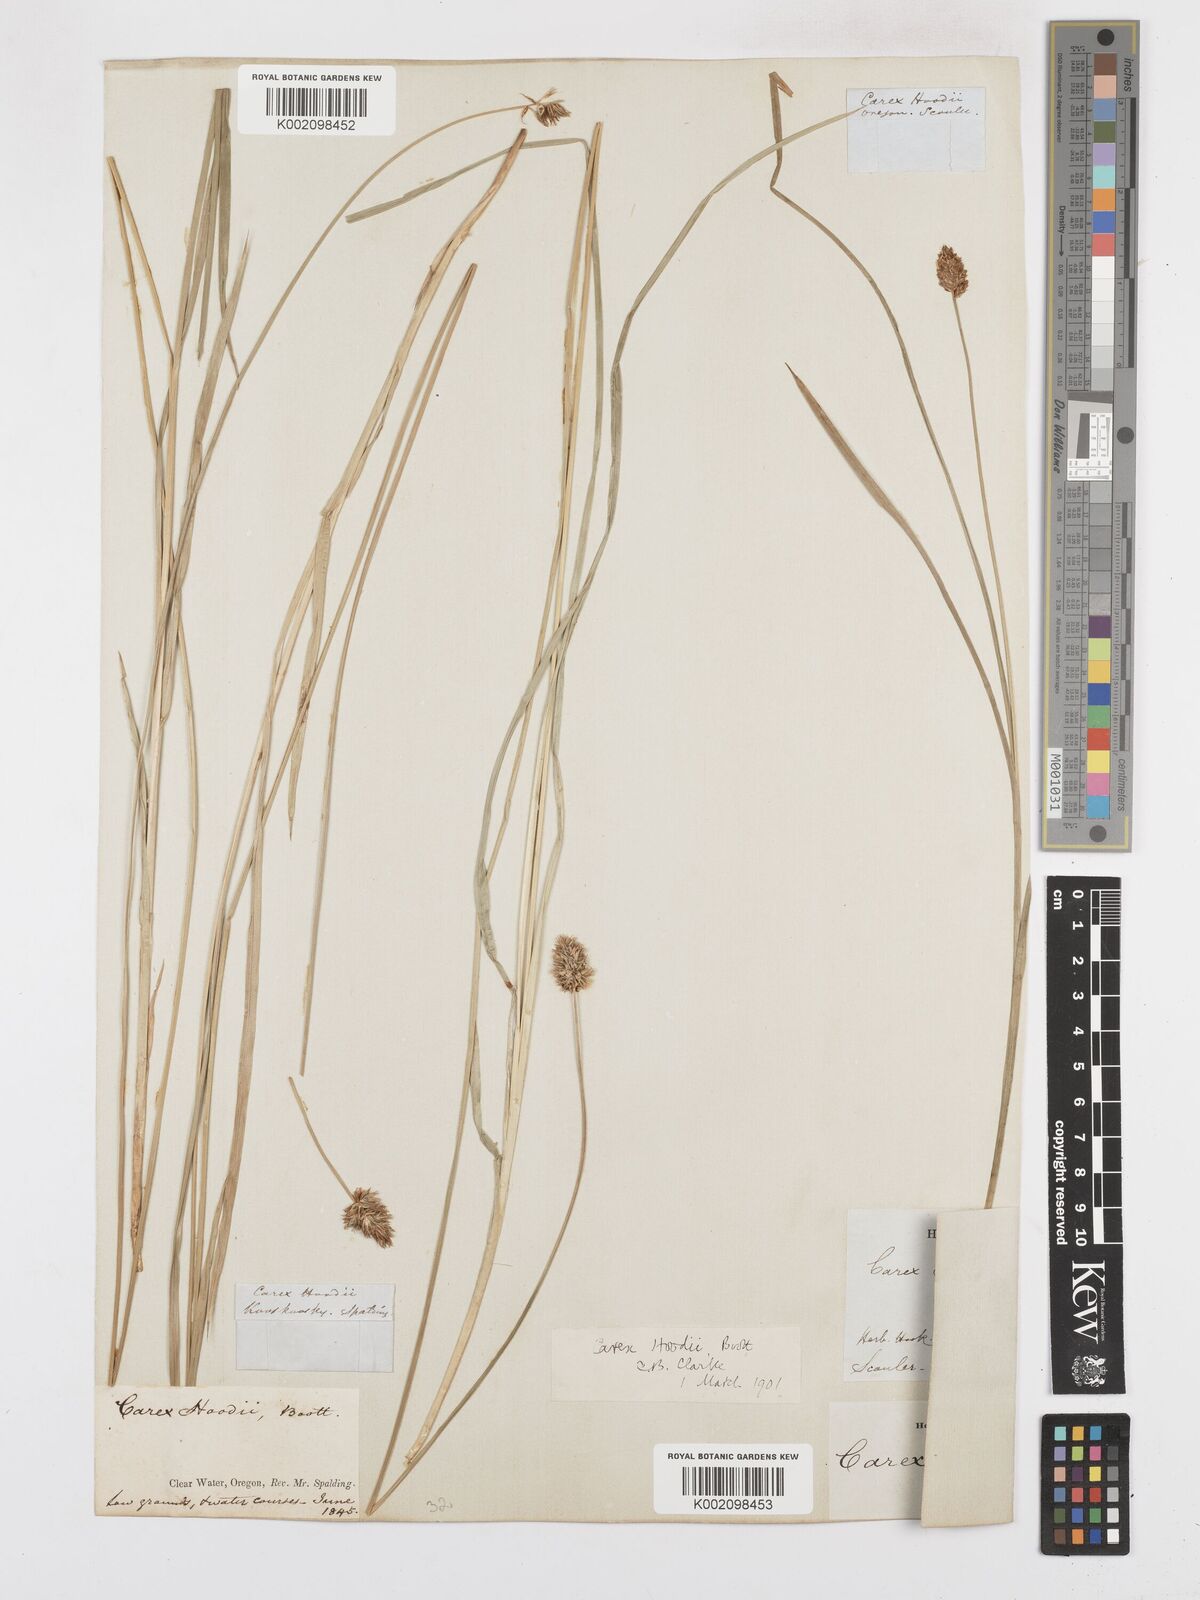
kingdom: Plantae
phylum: Tracheophyta
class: Liliopsida
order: Poales
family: Cyperaceae
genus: Carex
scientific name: Carex hoodii
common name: Hood's sedge
